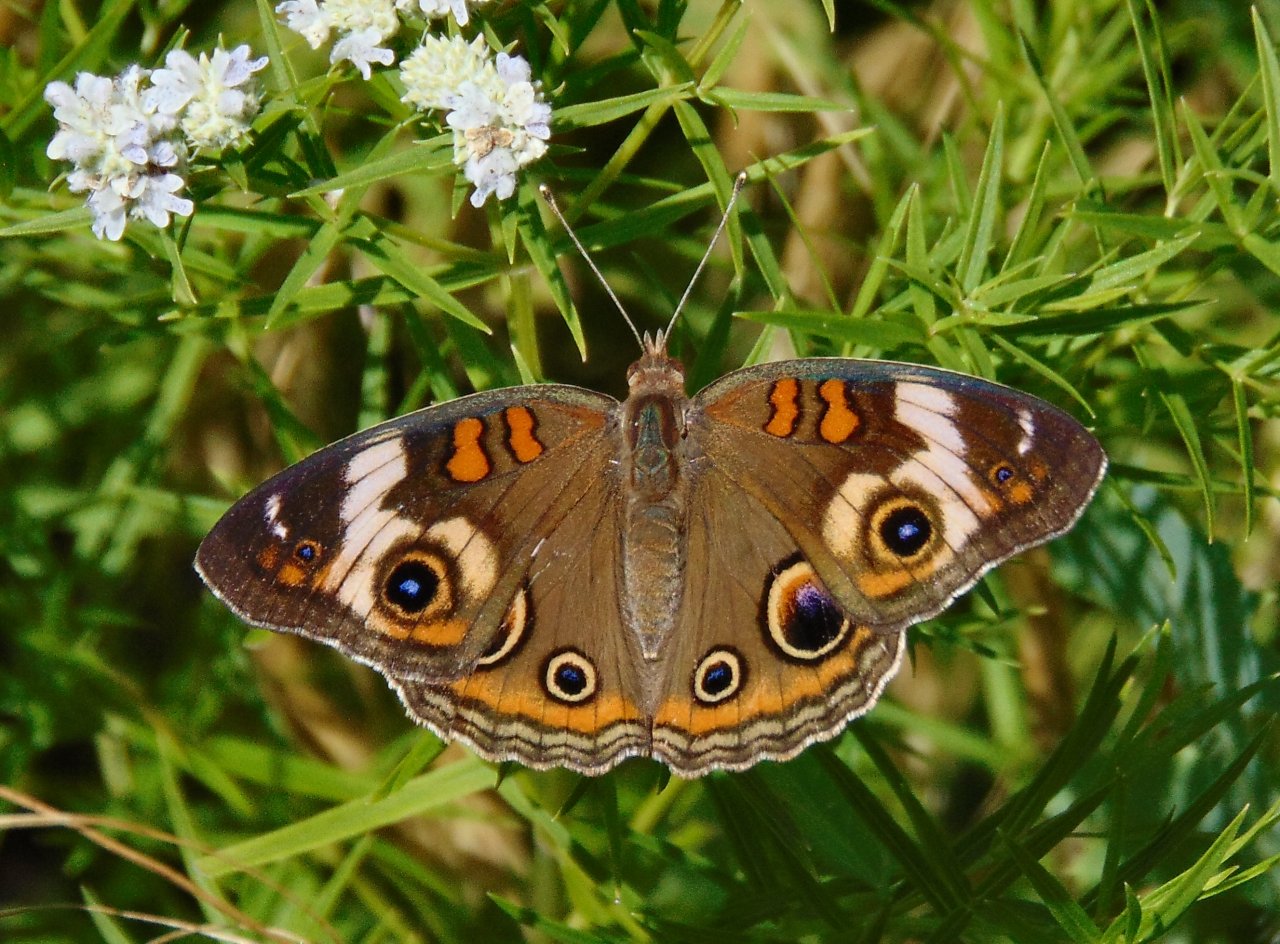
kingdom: Animalia
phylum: Arthropoda
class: Insecta
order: Lepidoptera
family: Nymphalidae
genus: Junonia
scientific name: Junonia coenia
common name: Common Buckeye
